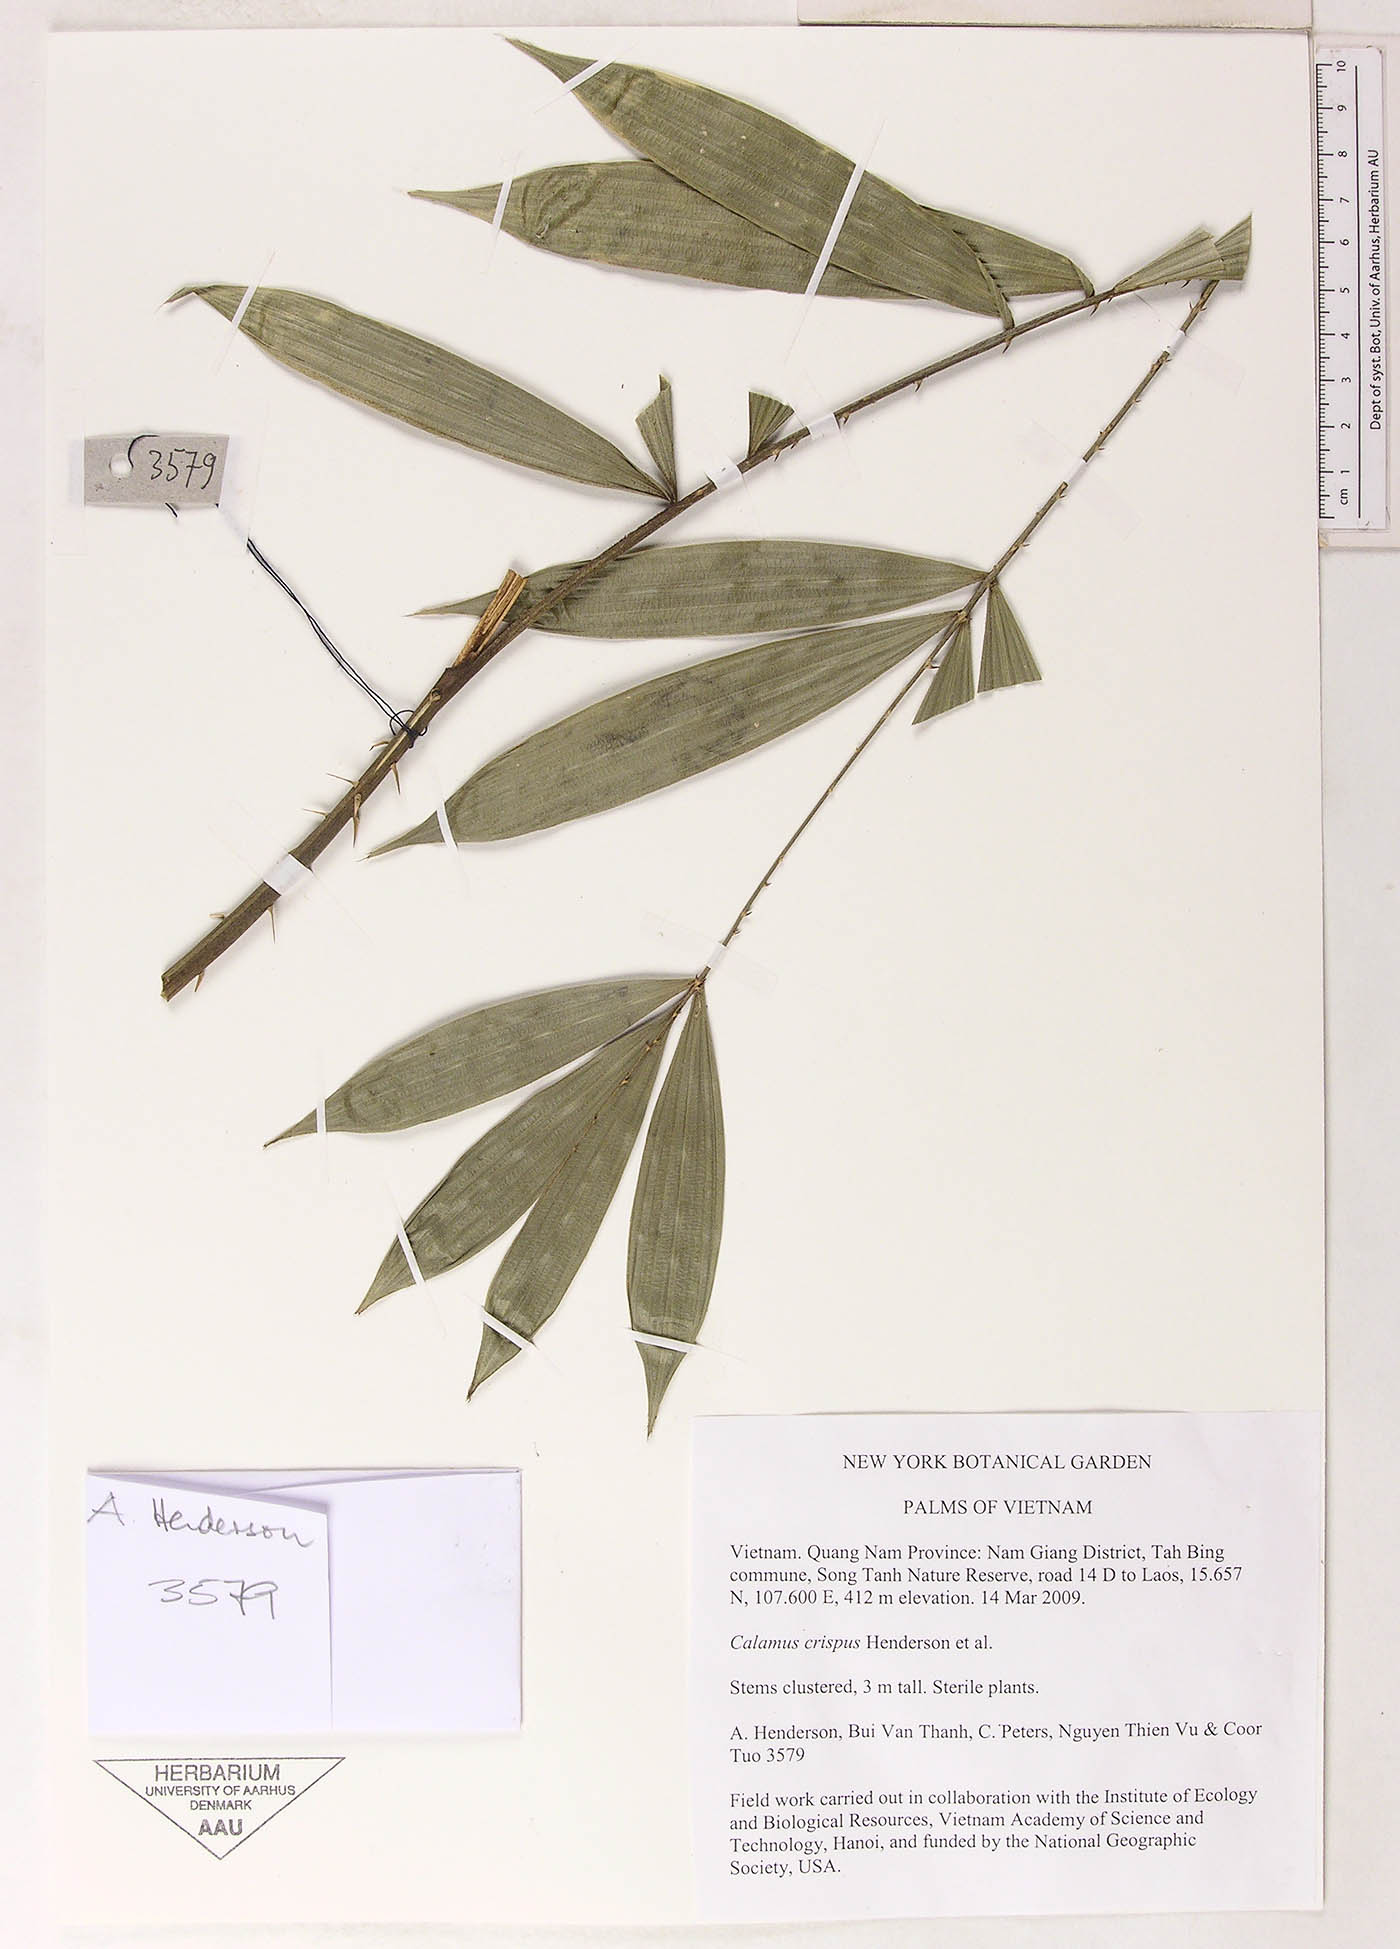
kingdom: Plantae
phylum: Tracheophyta
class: Liliopsida
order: Arecales
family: Arecaceae
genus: Calamus
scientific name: Calamus tetradactylus
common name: White rattan
